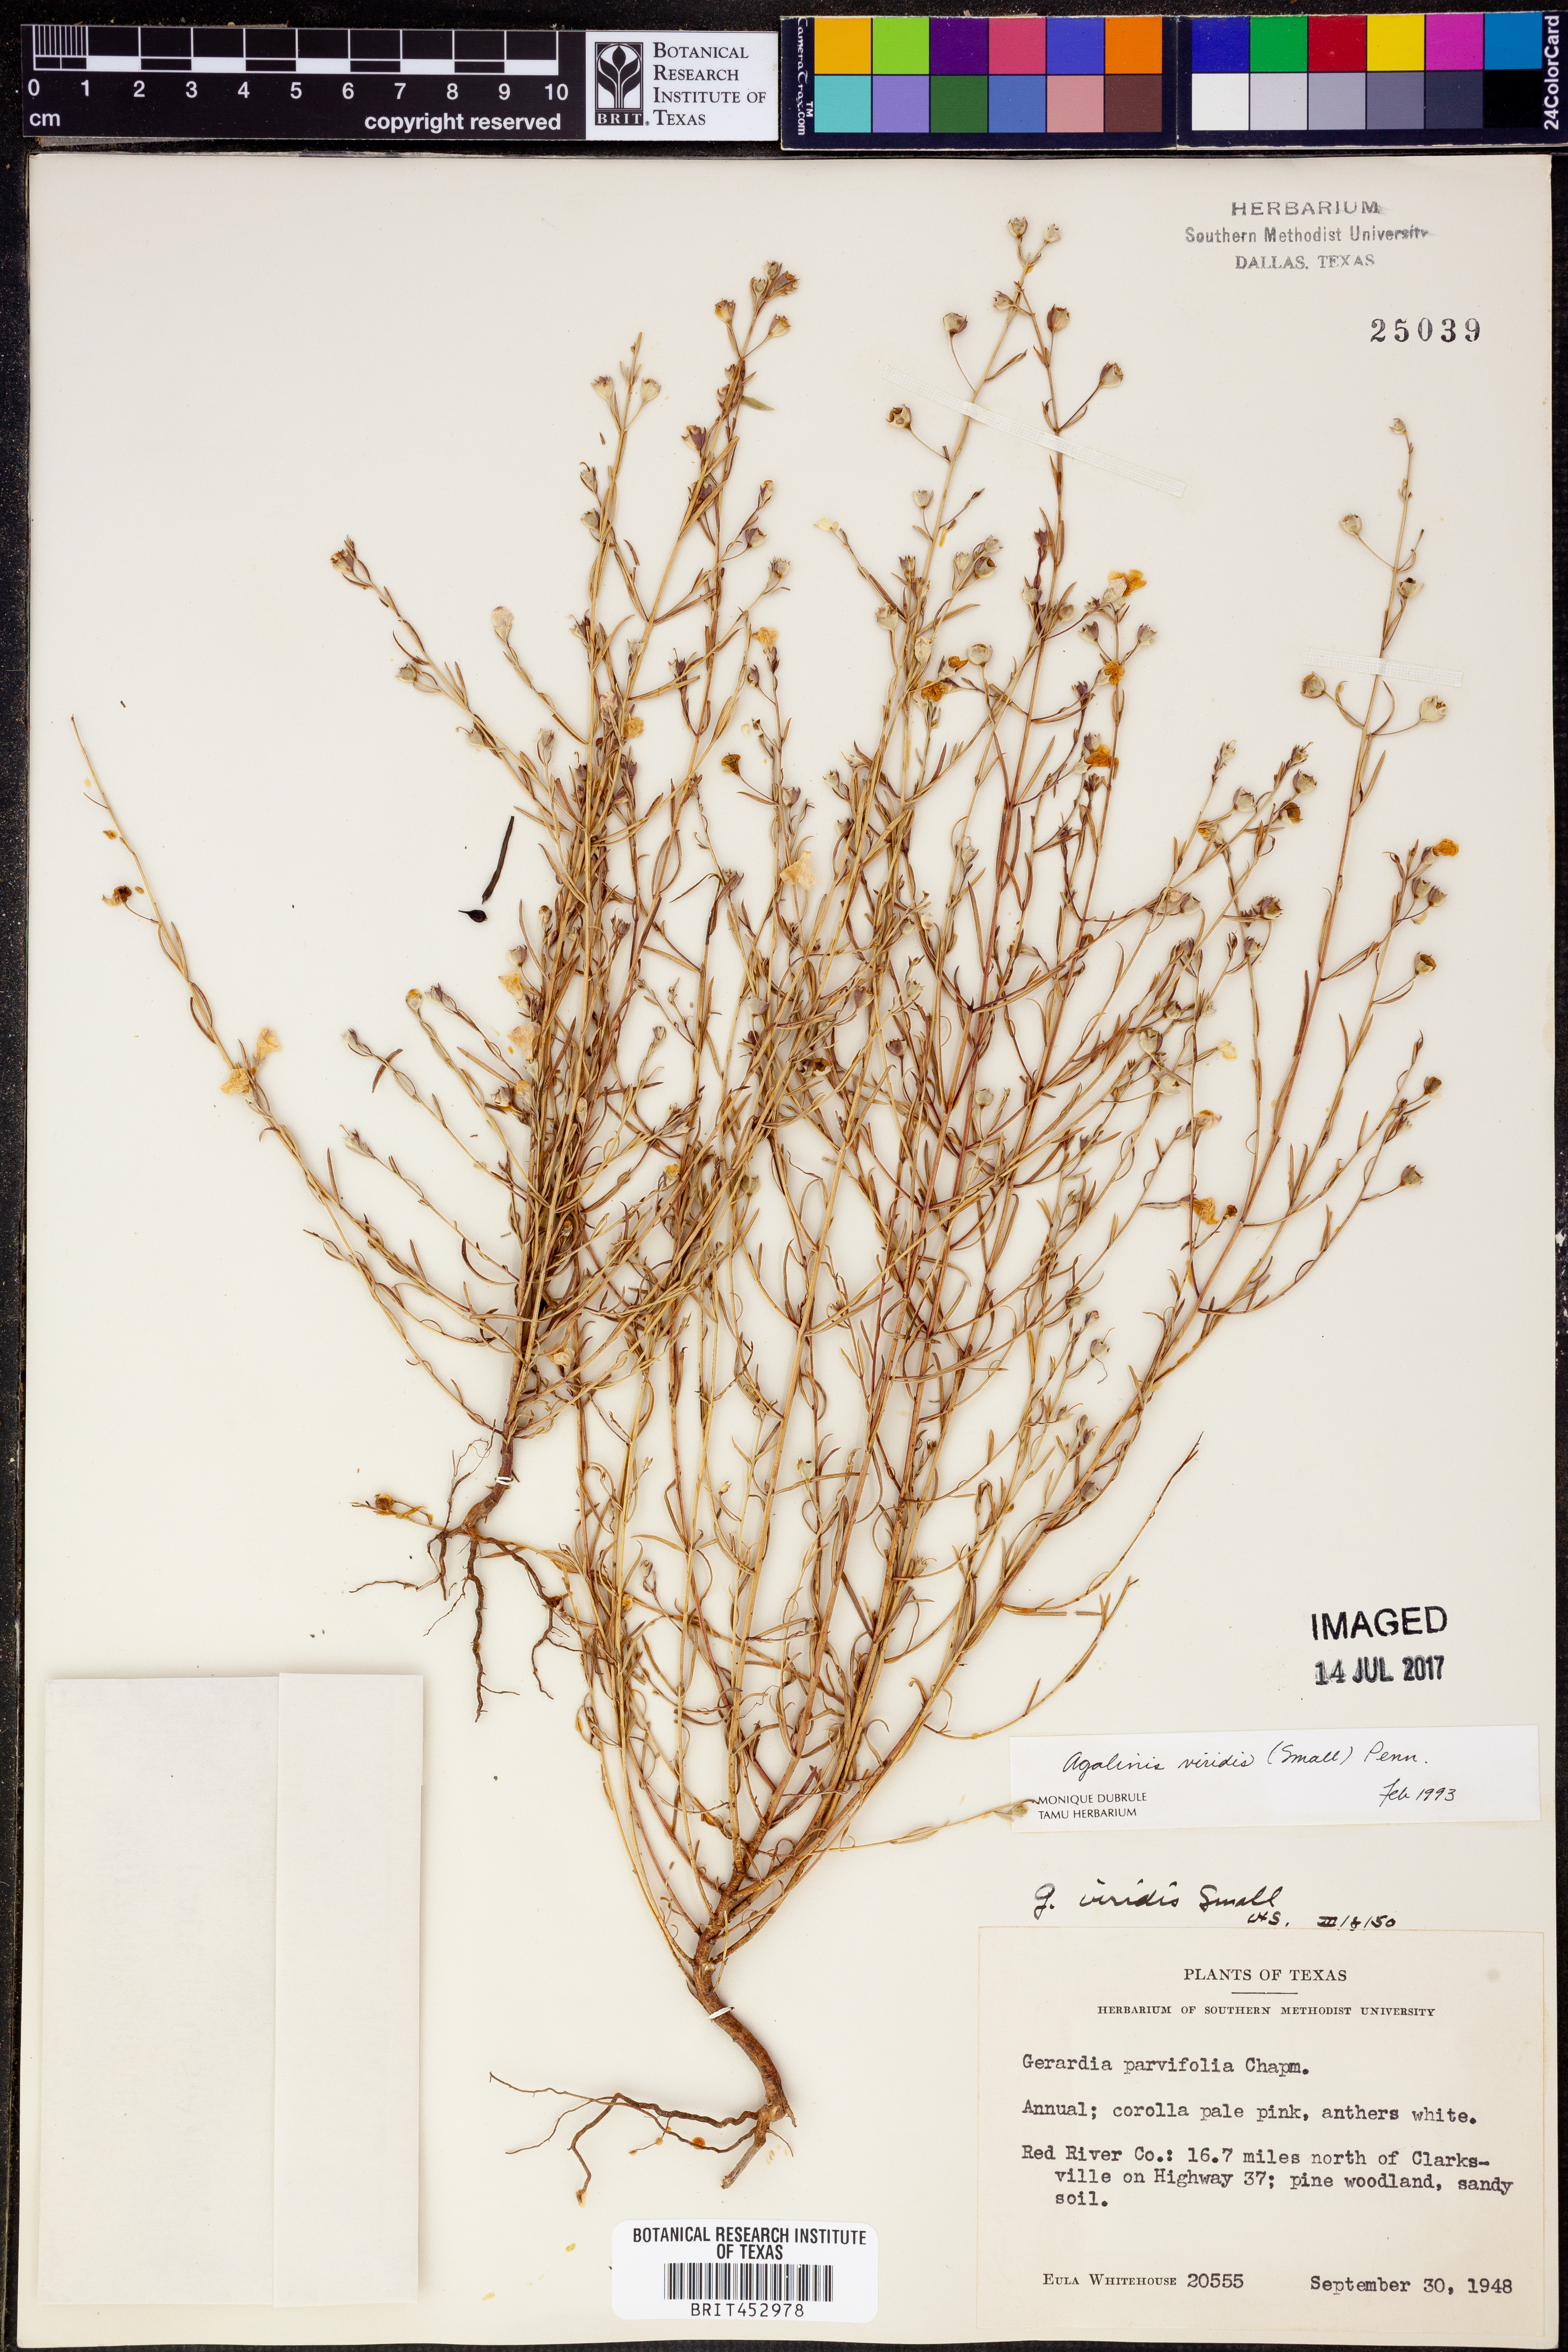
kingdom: Plantae
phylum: Tracheophyta
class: Magnoliopsida
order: Lamiales
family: Orobanchaceae
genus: Agalinis
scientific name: Agalinis viridis
